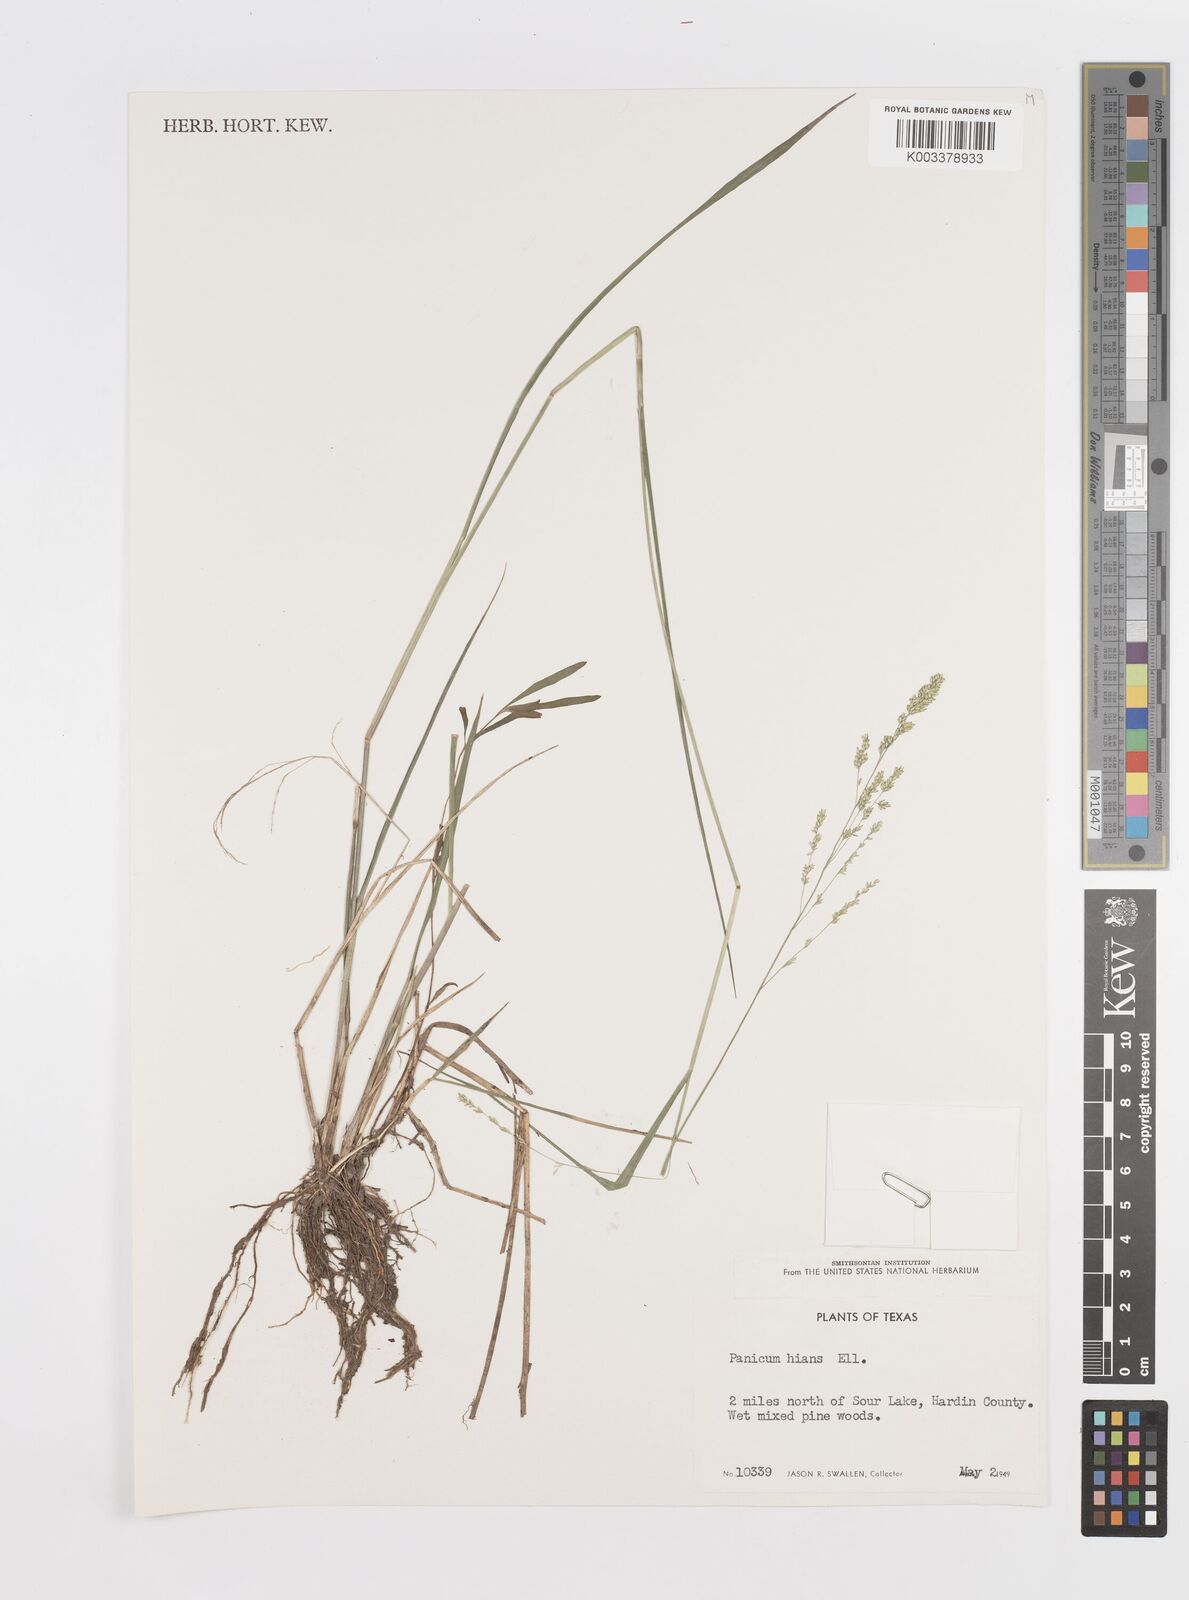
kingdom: Plantae
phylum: Tracheophyta
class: Liliopsida
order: Poales
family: Poaceae
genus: Steinchisma
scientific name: Steinchisma hians
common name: Gaping panic grass
